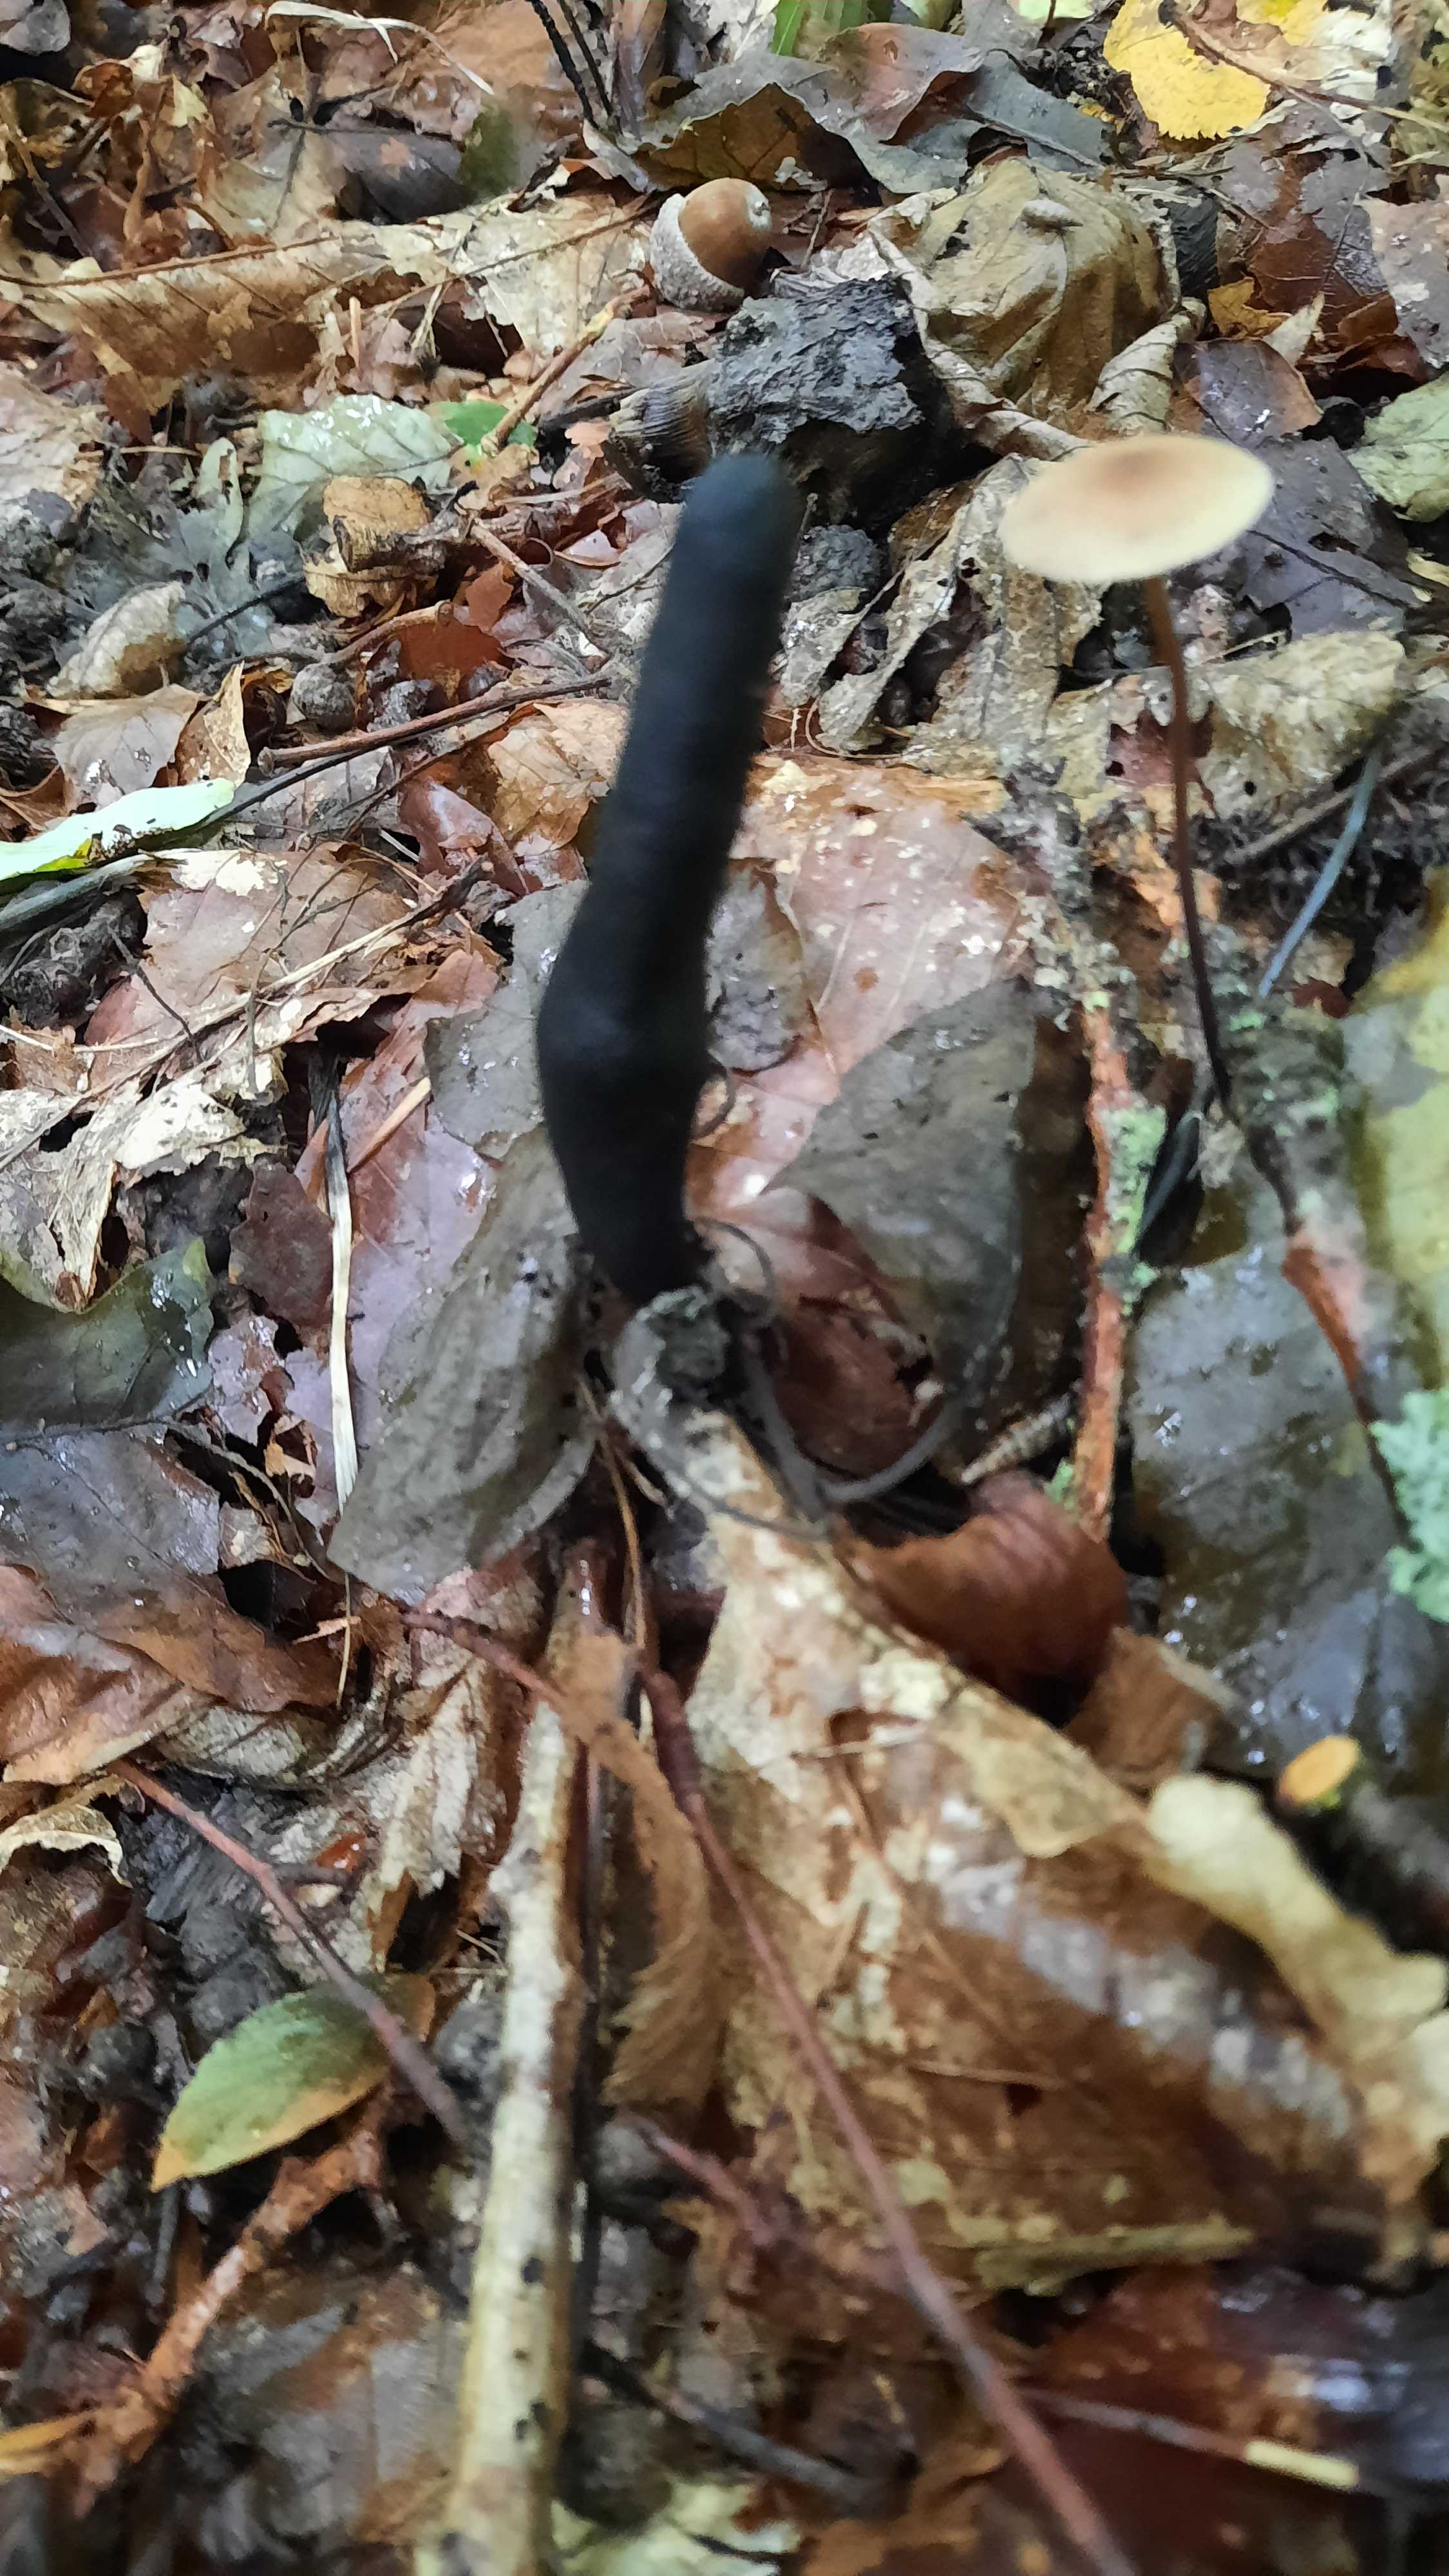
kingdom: Fungi
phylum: Ascomycota
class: Sordariomycetes
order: Xylariales
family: Xylariaceae
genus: Xylaria
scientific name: Xylaria longipes
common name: slank stødsvamp
